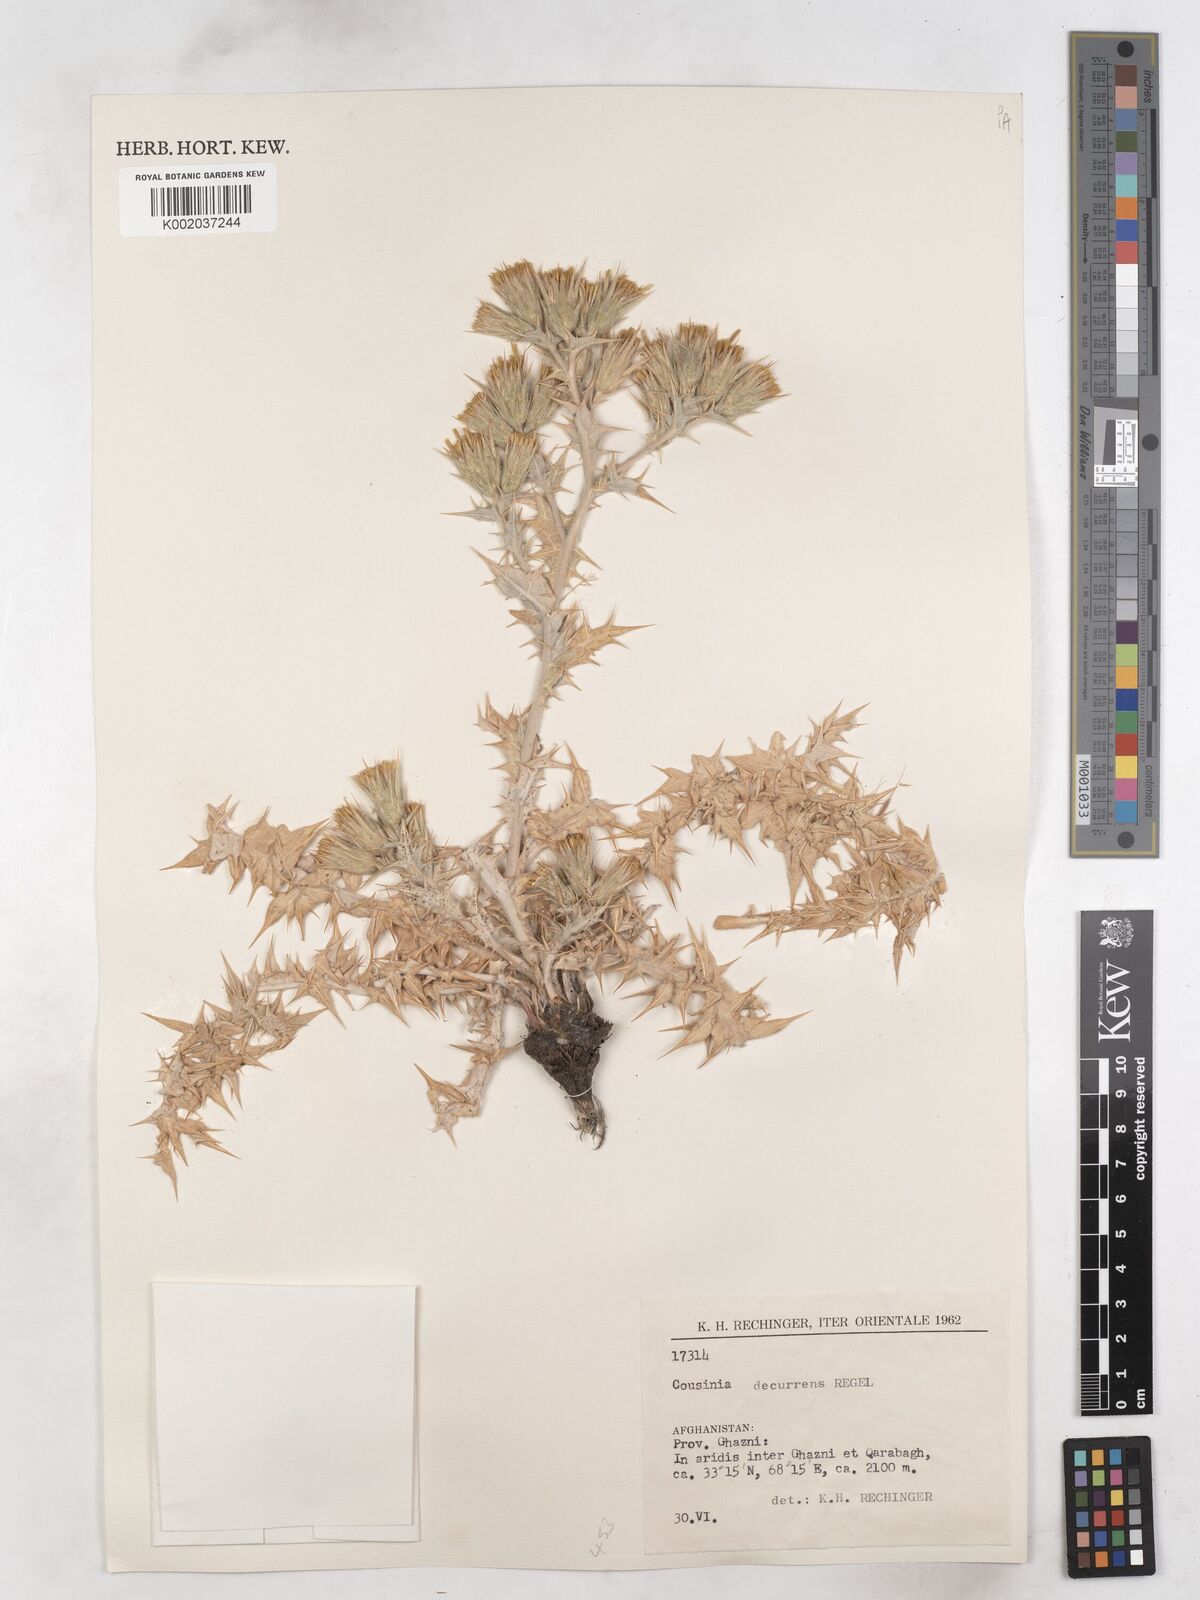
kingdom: Plantae
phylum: Tracheophyta
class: Magnoliopsida
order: Asterales
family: Asteraceae
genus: Cousinia
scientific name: Cousinia decurrens
